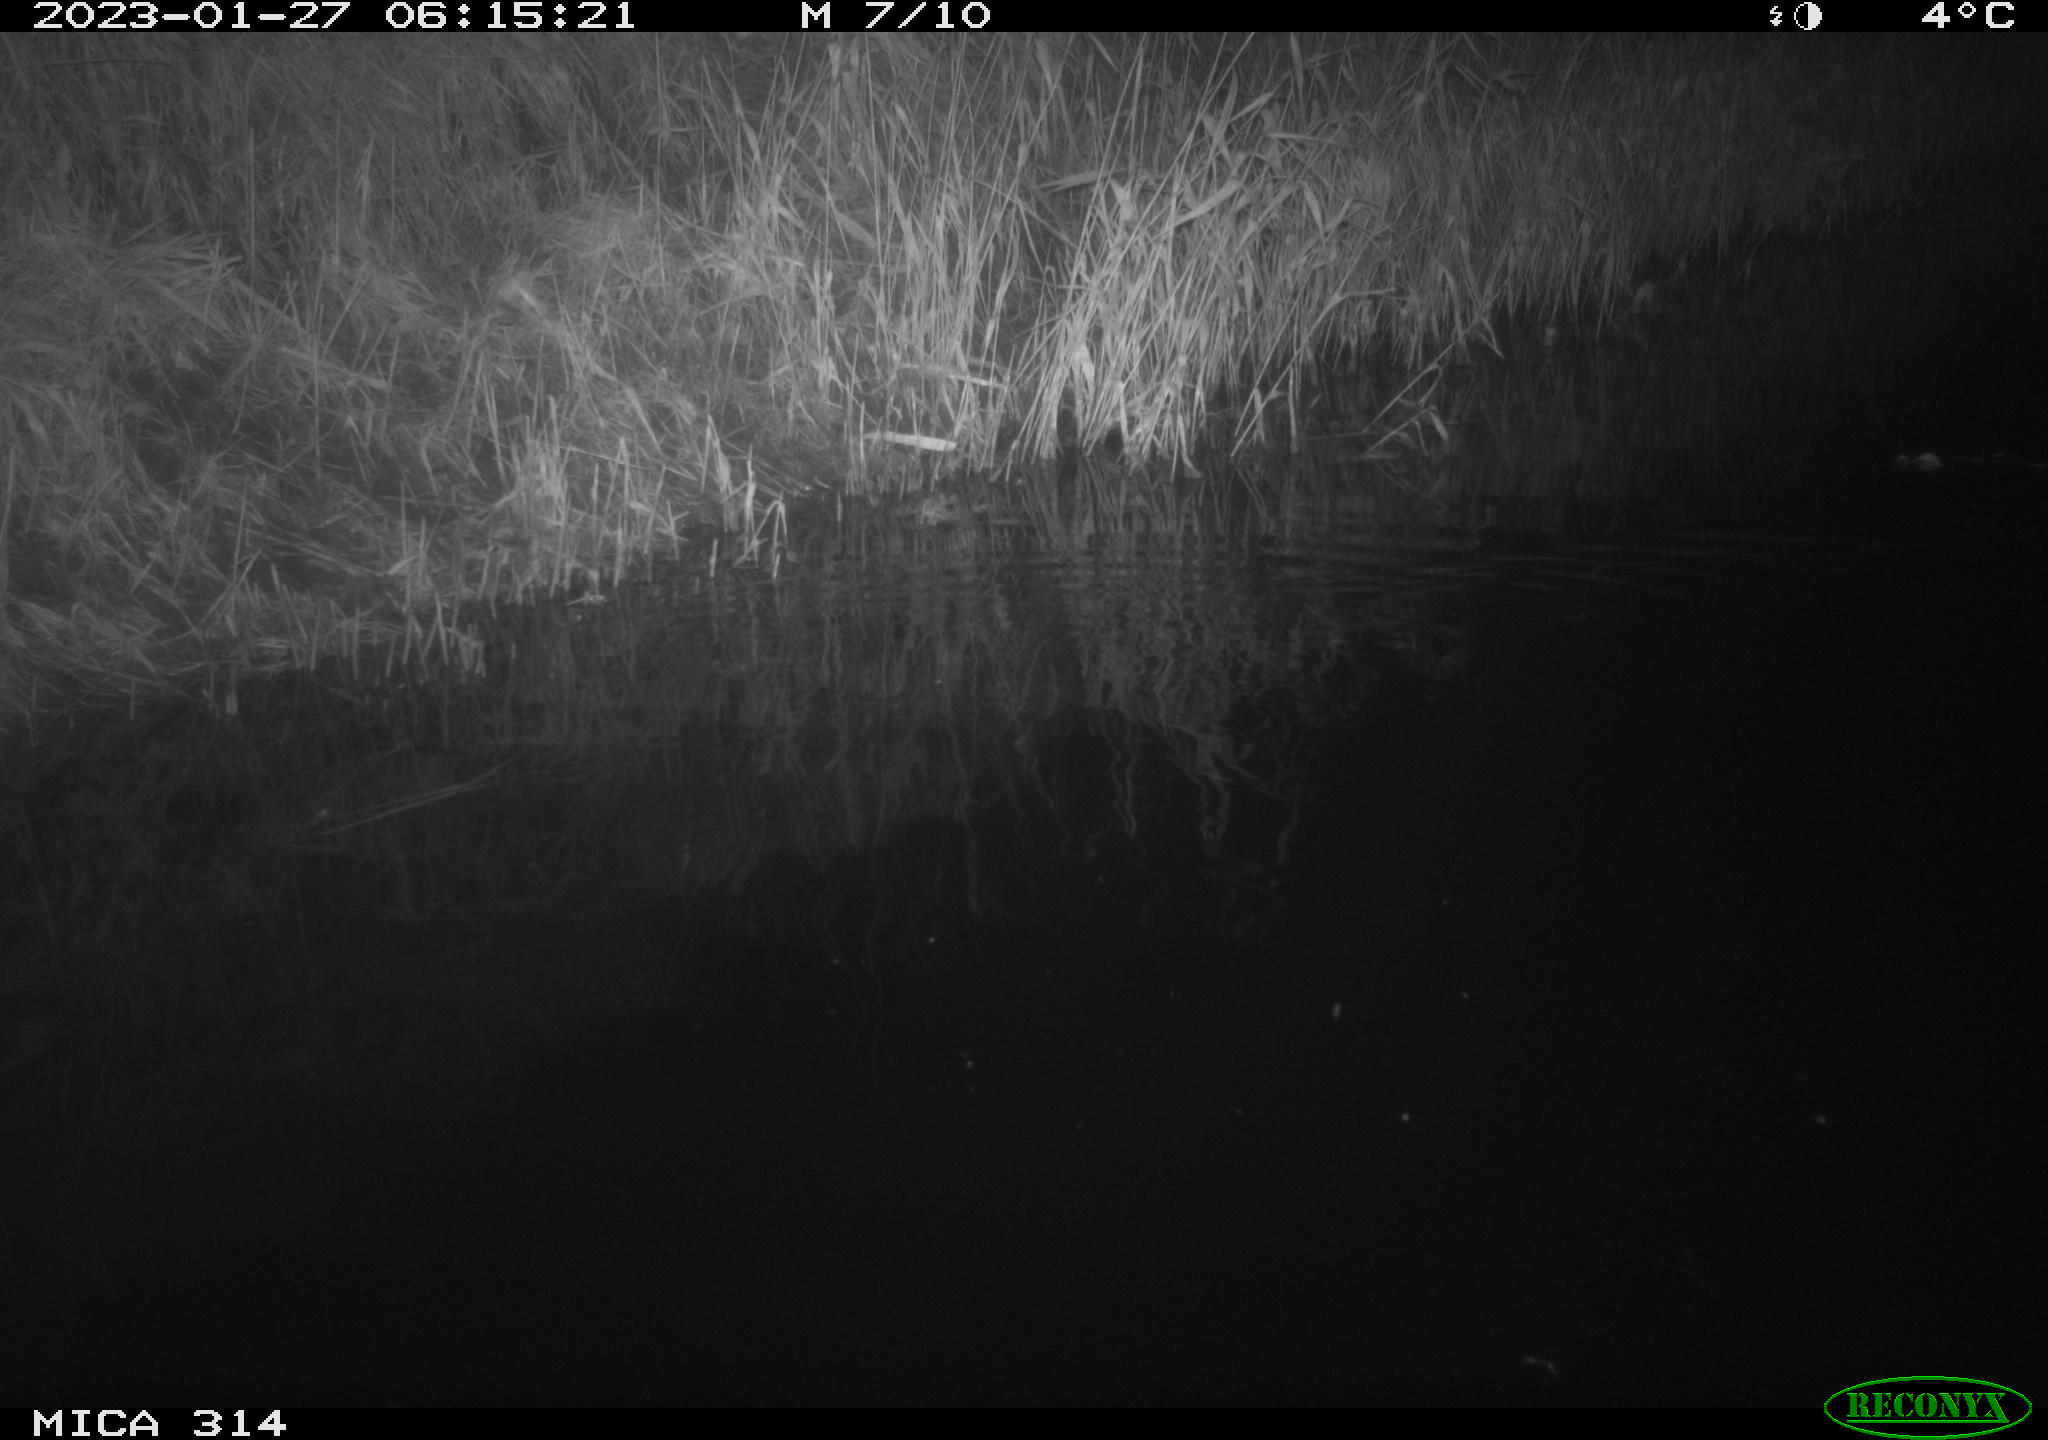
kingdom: Animalia
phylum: Chordata
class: Mammalia
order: Rodentia
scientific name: Rodentia
